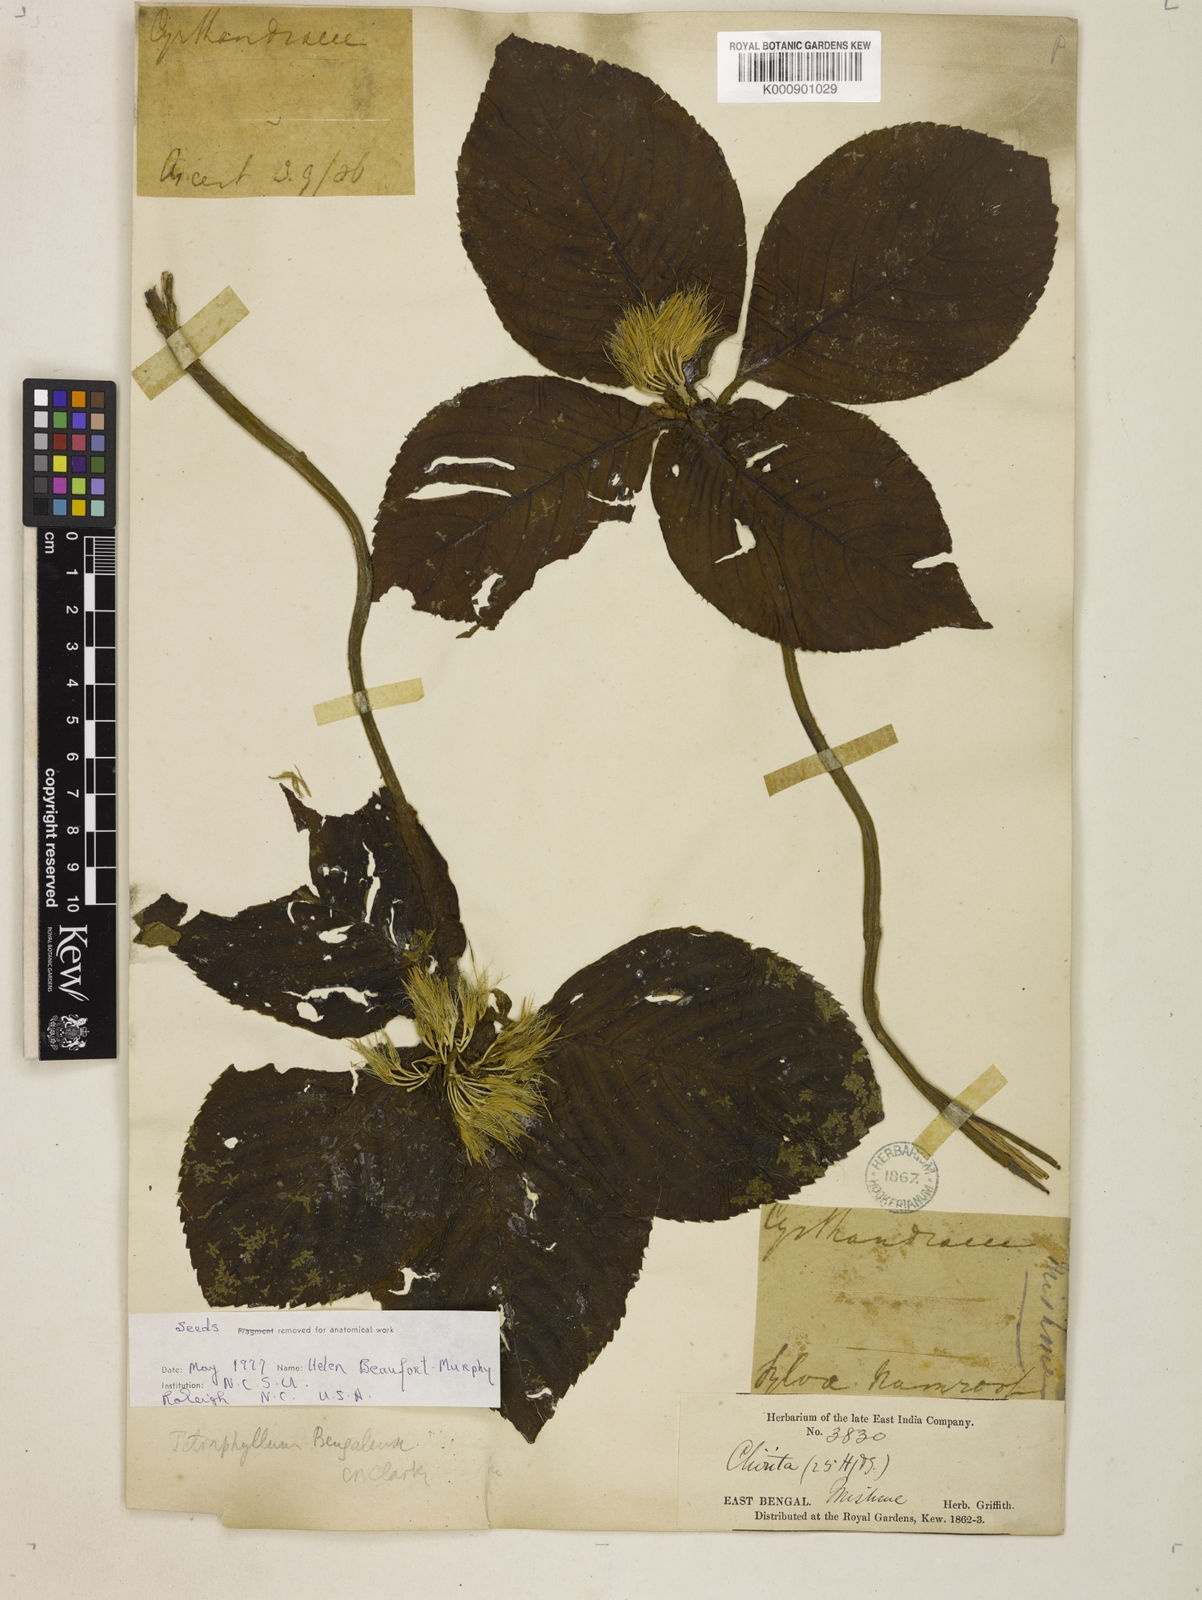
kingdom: Plantae
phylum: Tracheophyta
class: Magnoliopsida
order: Lamiales
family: Gesneriaceae
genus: Tetraphylloides
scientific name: Tetraphylloides bengalensis
